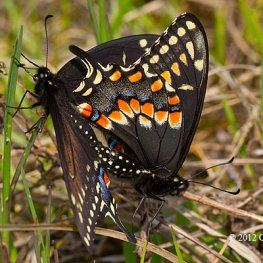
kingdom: Animalia
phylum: Arthropoda
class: Insecta
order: Lepidoptera
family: Papilionidae
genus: Papilio
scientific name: Papilio polyxenes
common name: Black Swallowtail
